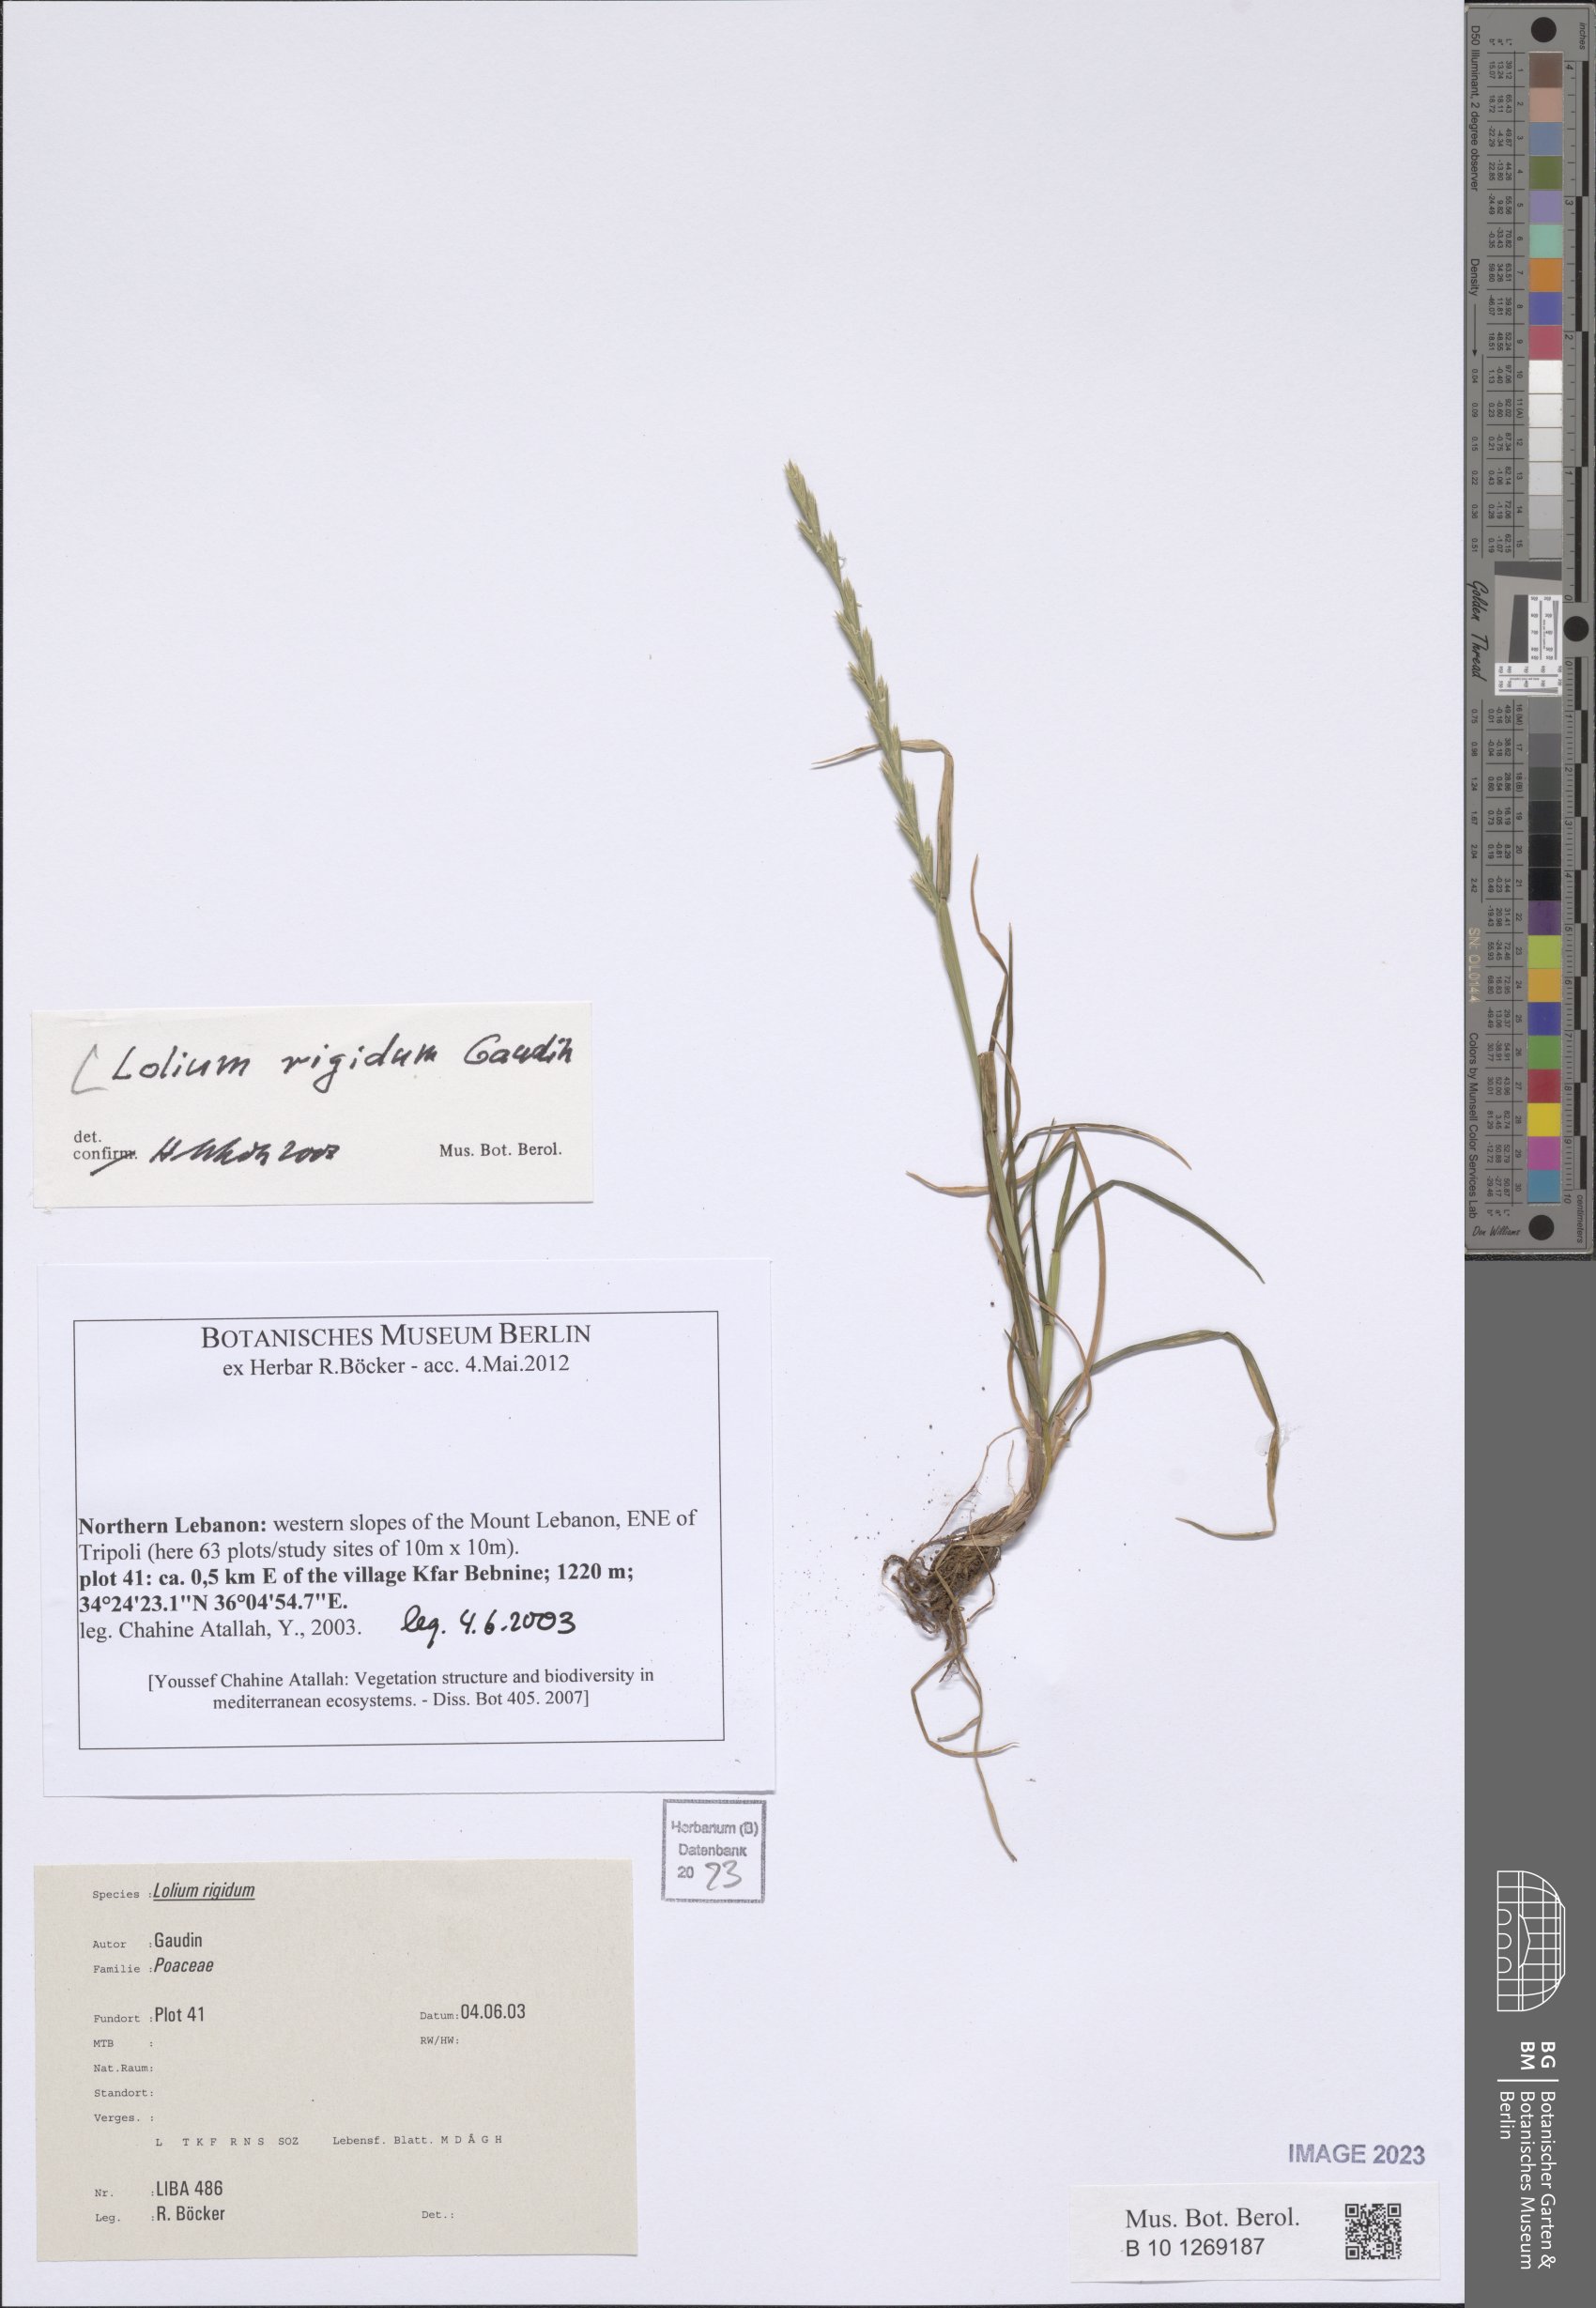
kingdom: Plantae
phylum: Tracheophyta
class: Liliopsida
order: Poales
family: Poaceae
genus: Lolium
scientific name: Lolium rigidum
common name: Wimmera ryegrass
